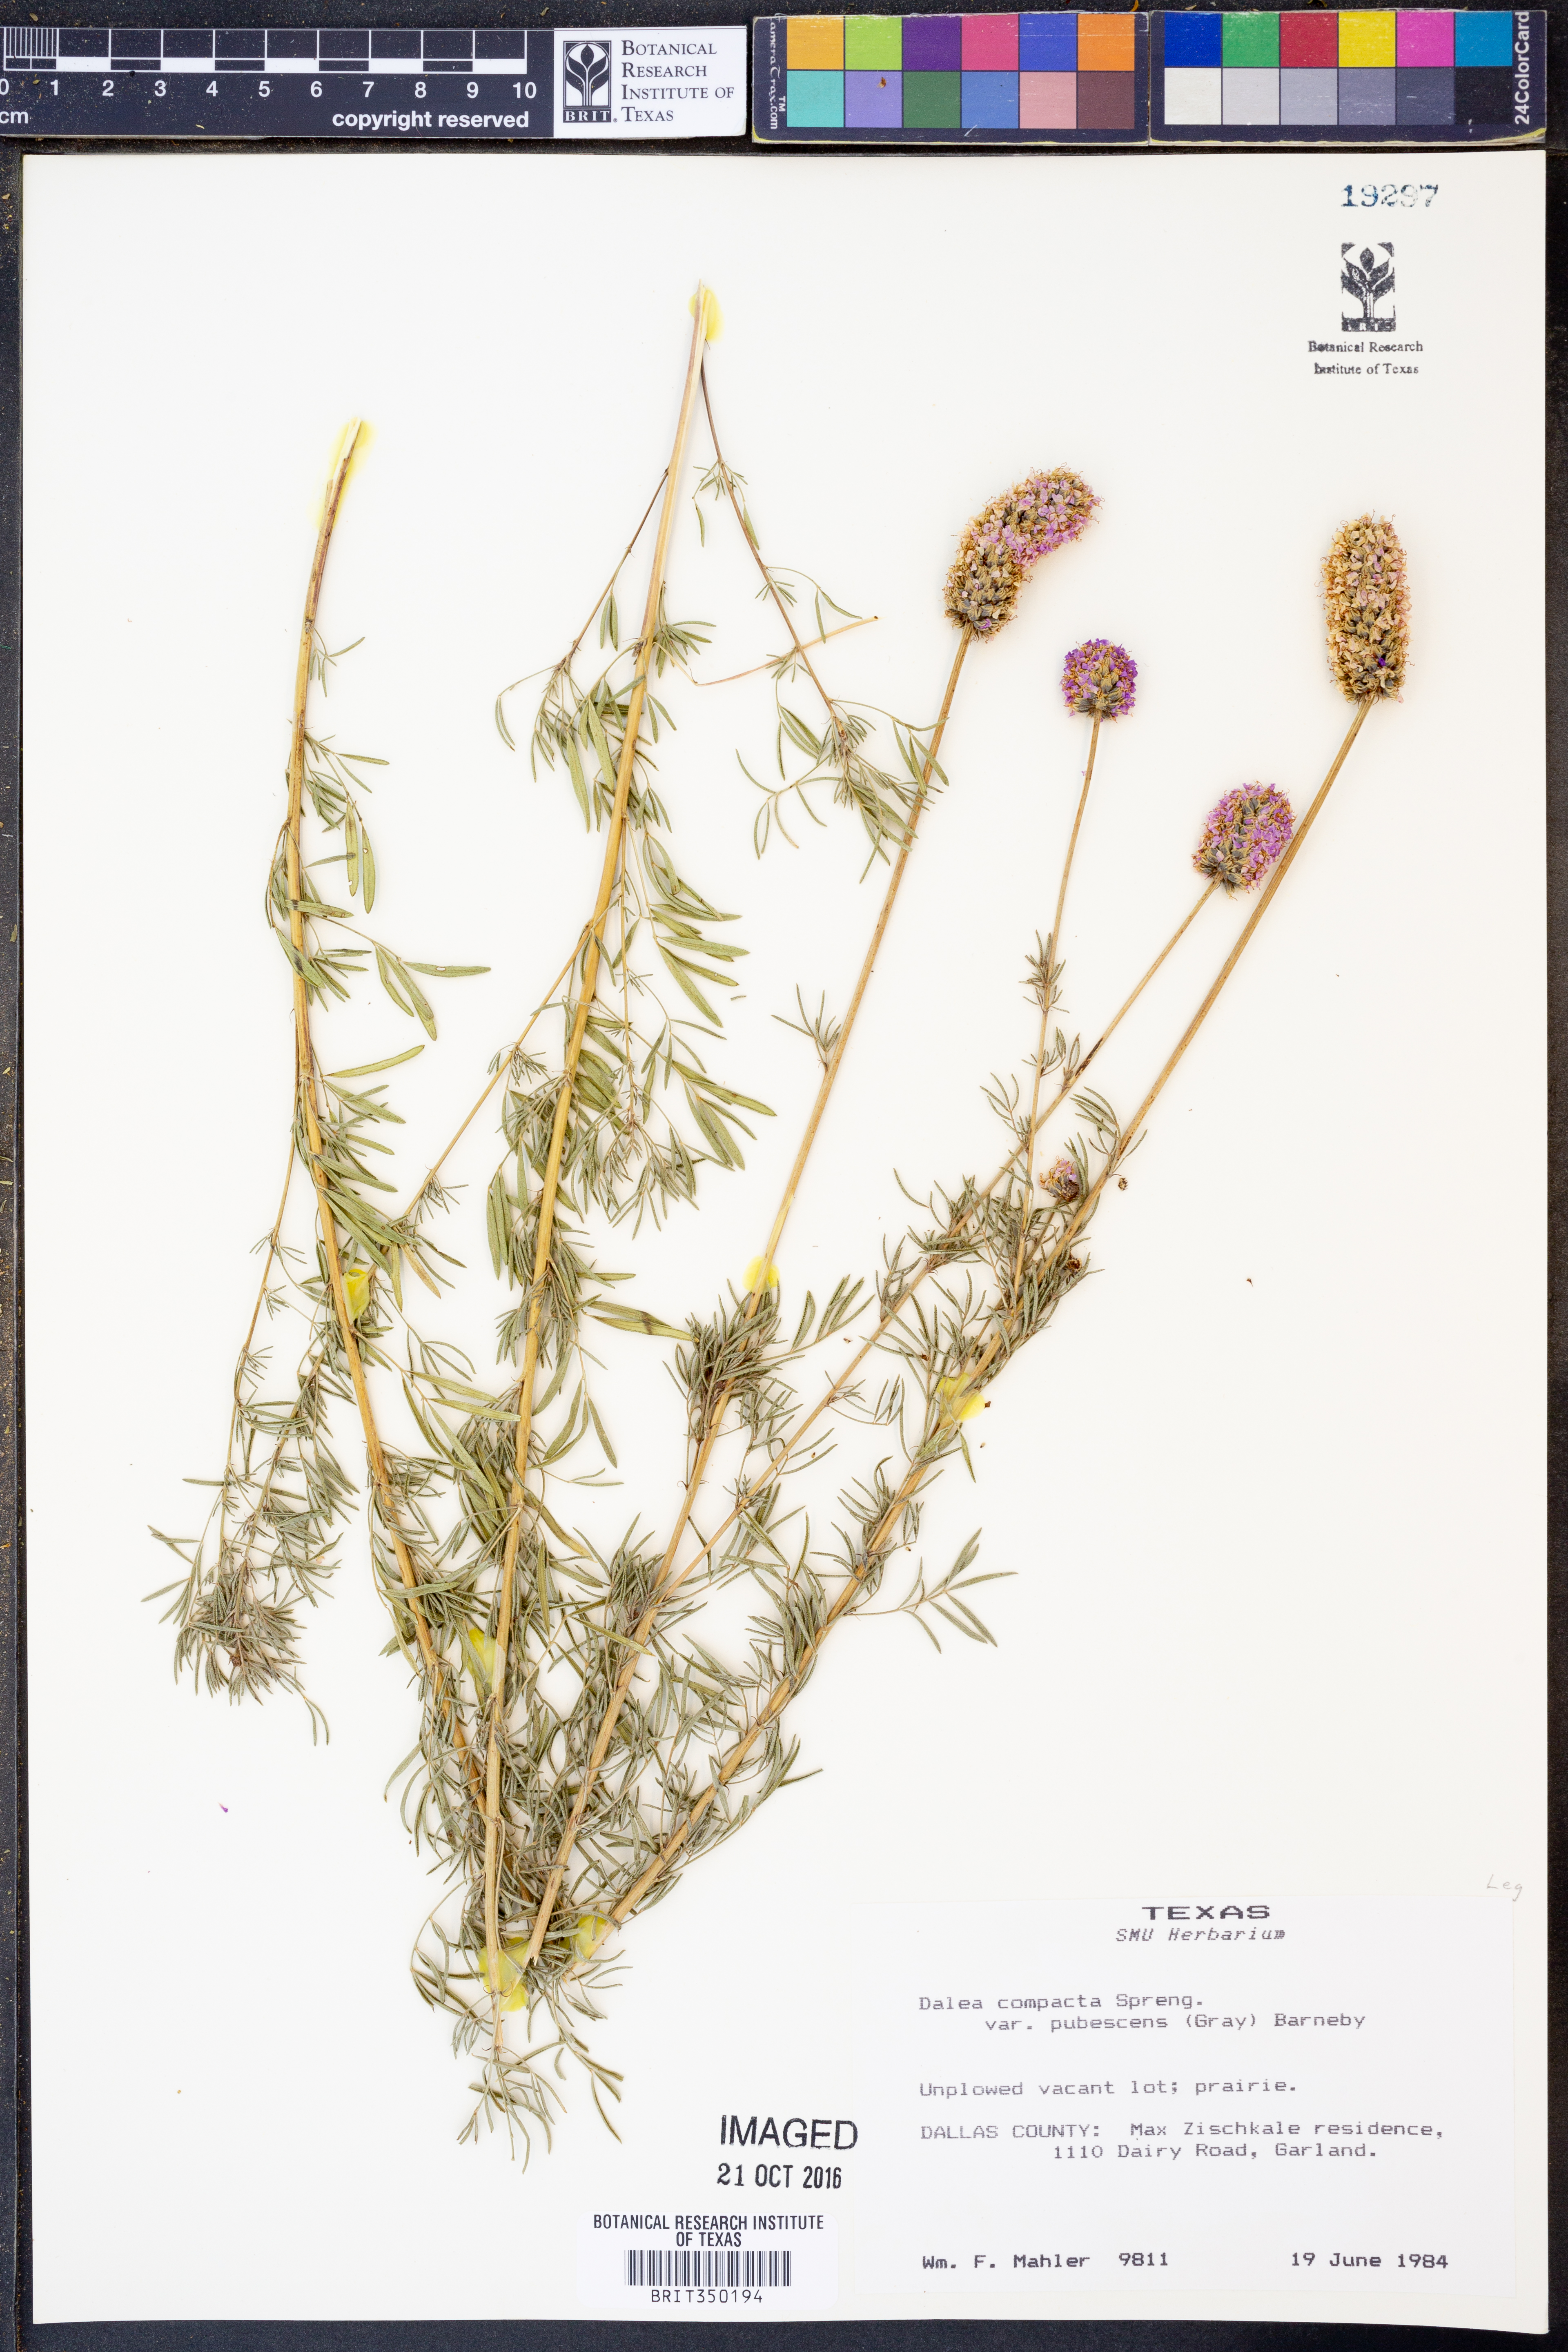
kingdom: Plantae
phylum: Tracheophyta
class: Magnoliopsida
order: Fabales
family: Fabaceae
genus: Dalea
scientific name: Dalea compacta
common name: Compact prairie-clover
